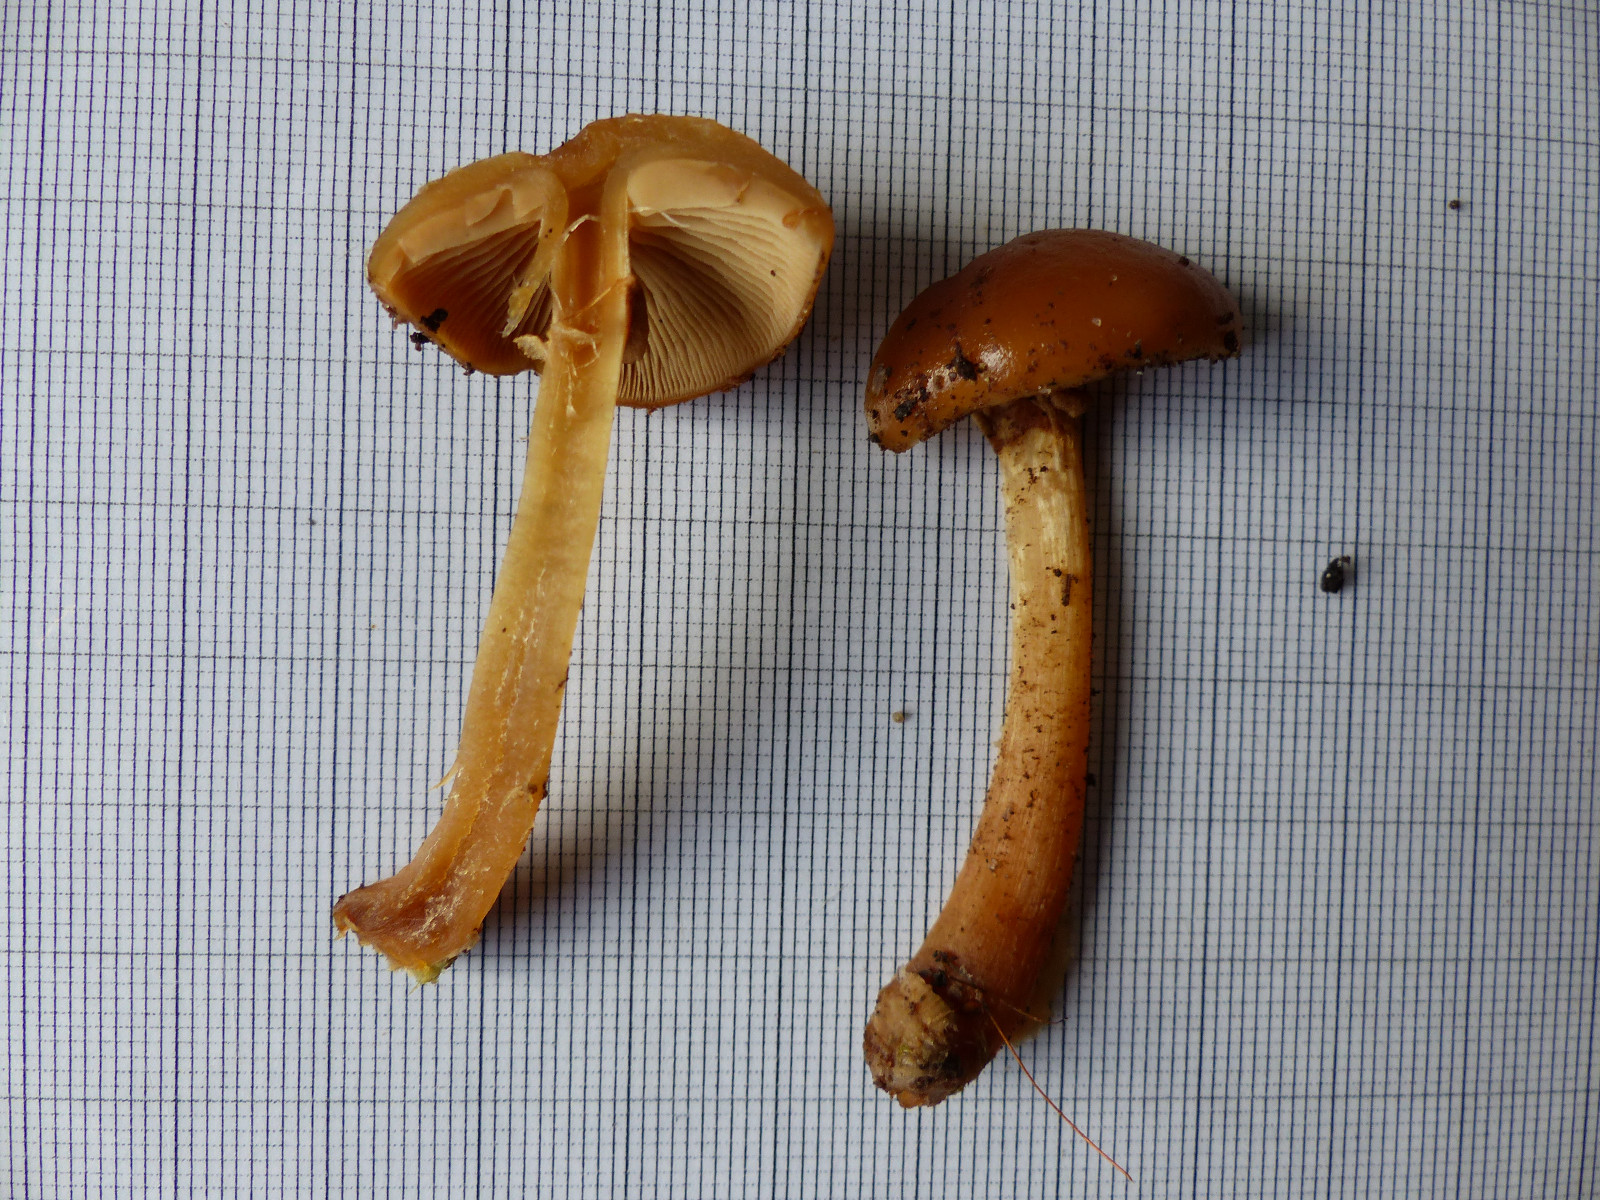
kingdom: Fungi
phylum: Basidiomycota
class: Agaricomycetes
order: Agaricales
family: Hymenogastraceae
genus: Galerina
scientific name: Galerina marginata
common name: randbæltet hjelmhat
